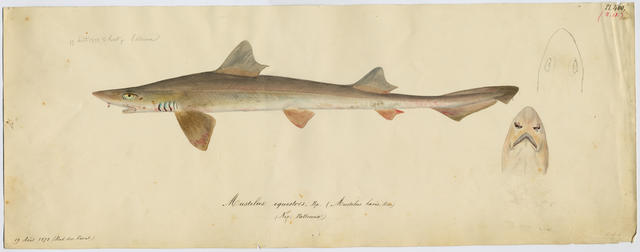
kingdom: Animalia
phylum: Chordata
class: Elasmobranchii
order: Carcharhiniformes
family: Triakidae
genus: Mustelus
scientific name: Mustelus mustelus
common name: Smooth-hound
